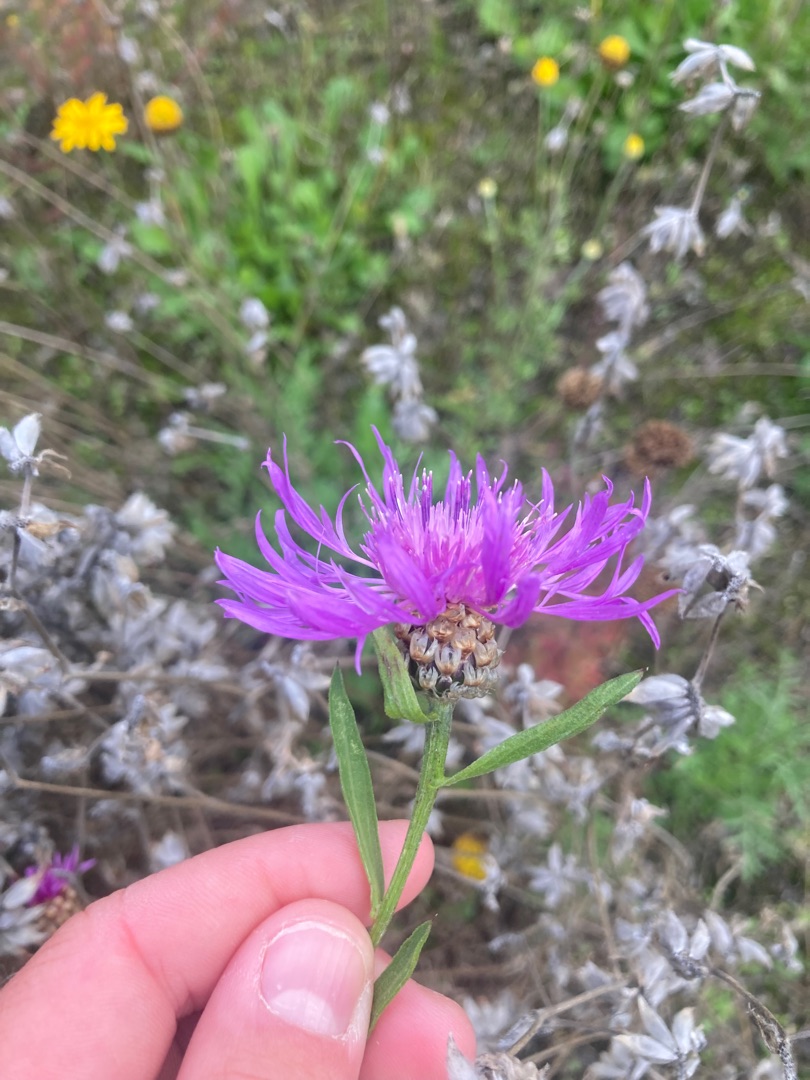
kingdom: Plantae
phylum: Tracheophyta
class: Magnoliopsida
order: Asterales
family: Asteraceae
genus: Centaurea
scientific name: Centaurea jacea
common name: Almindelig knopurt
